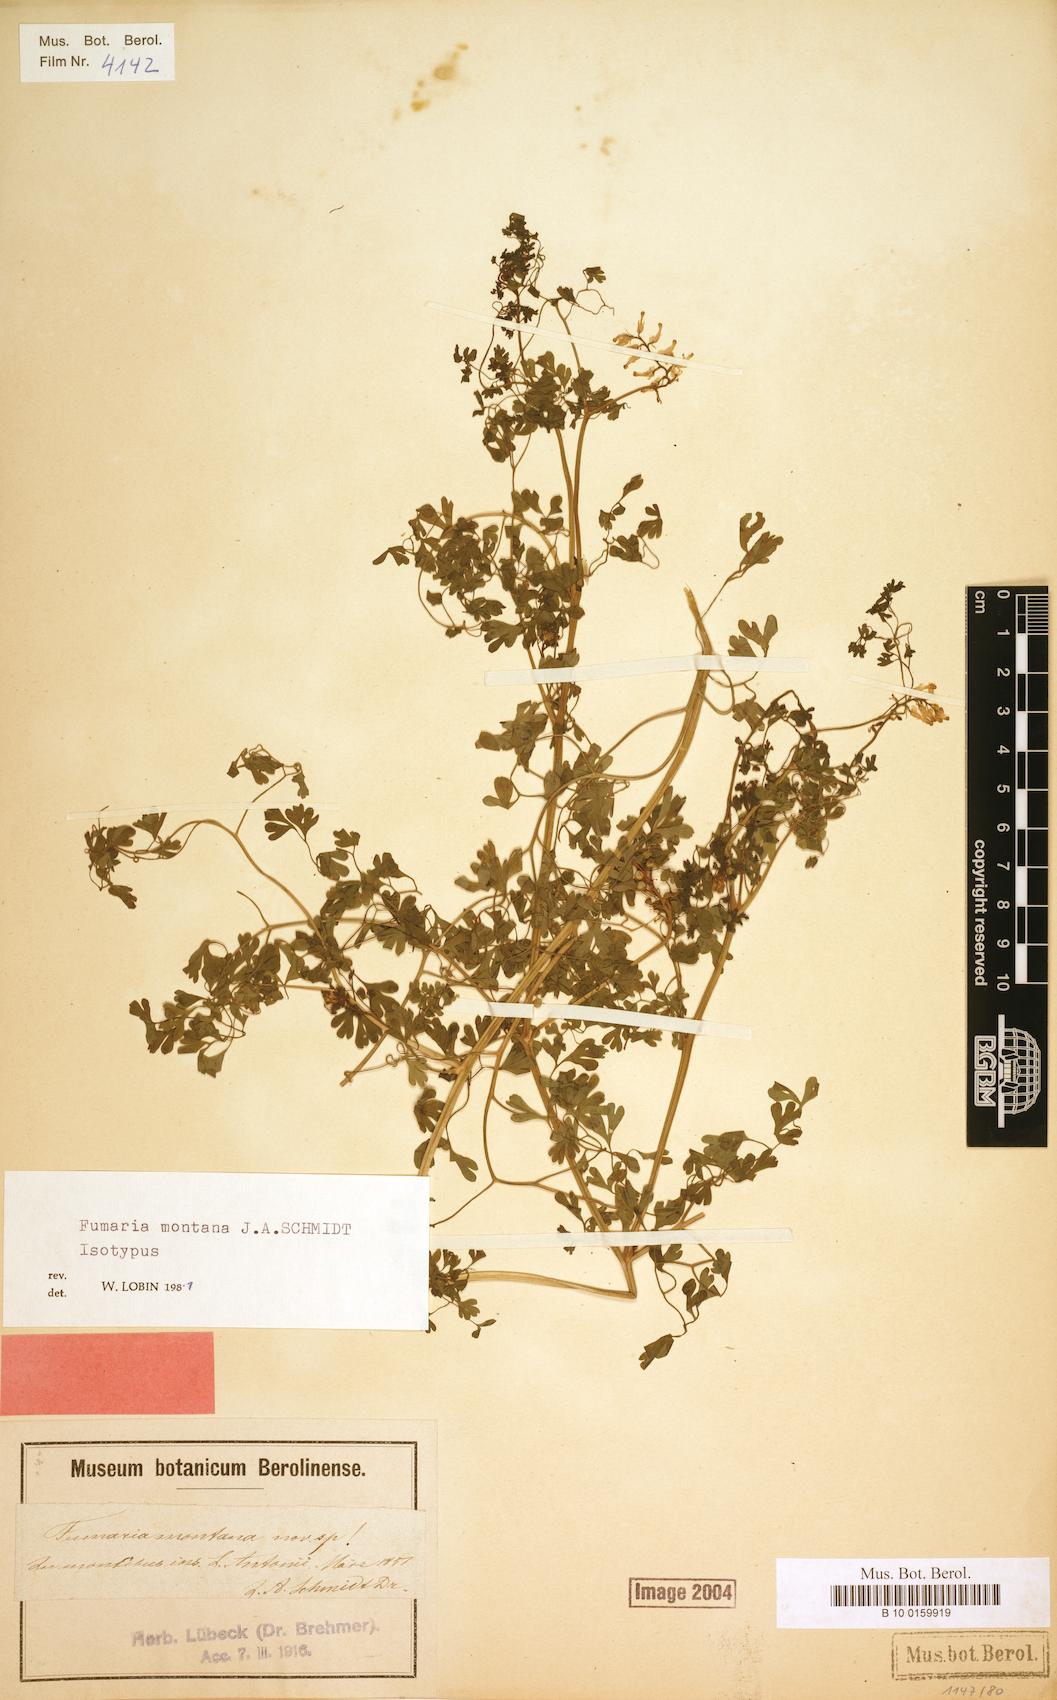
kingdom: Plantae
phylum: Tracheophyta
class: Magnoliopsida
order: Ranunculales
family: Papaveraceae
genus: Fumaria
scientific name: Fumaria montana
